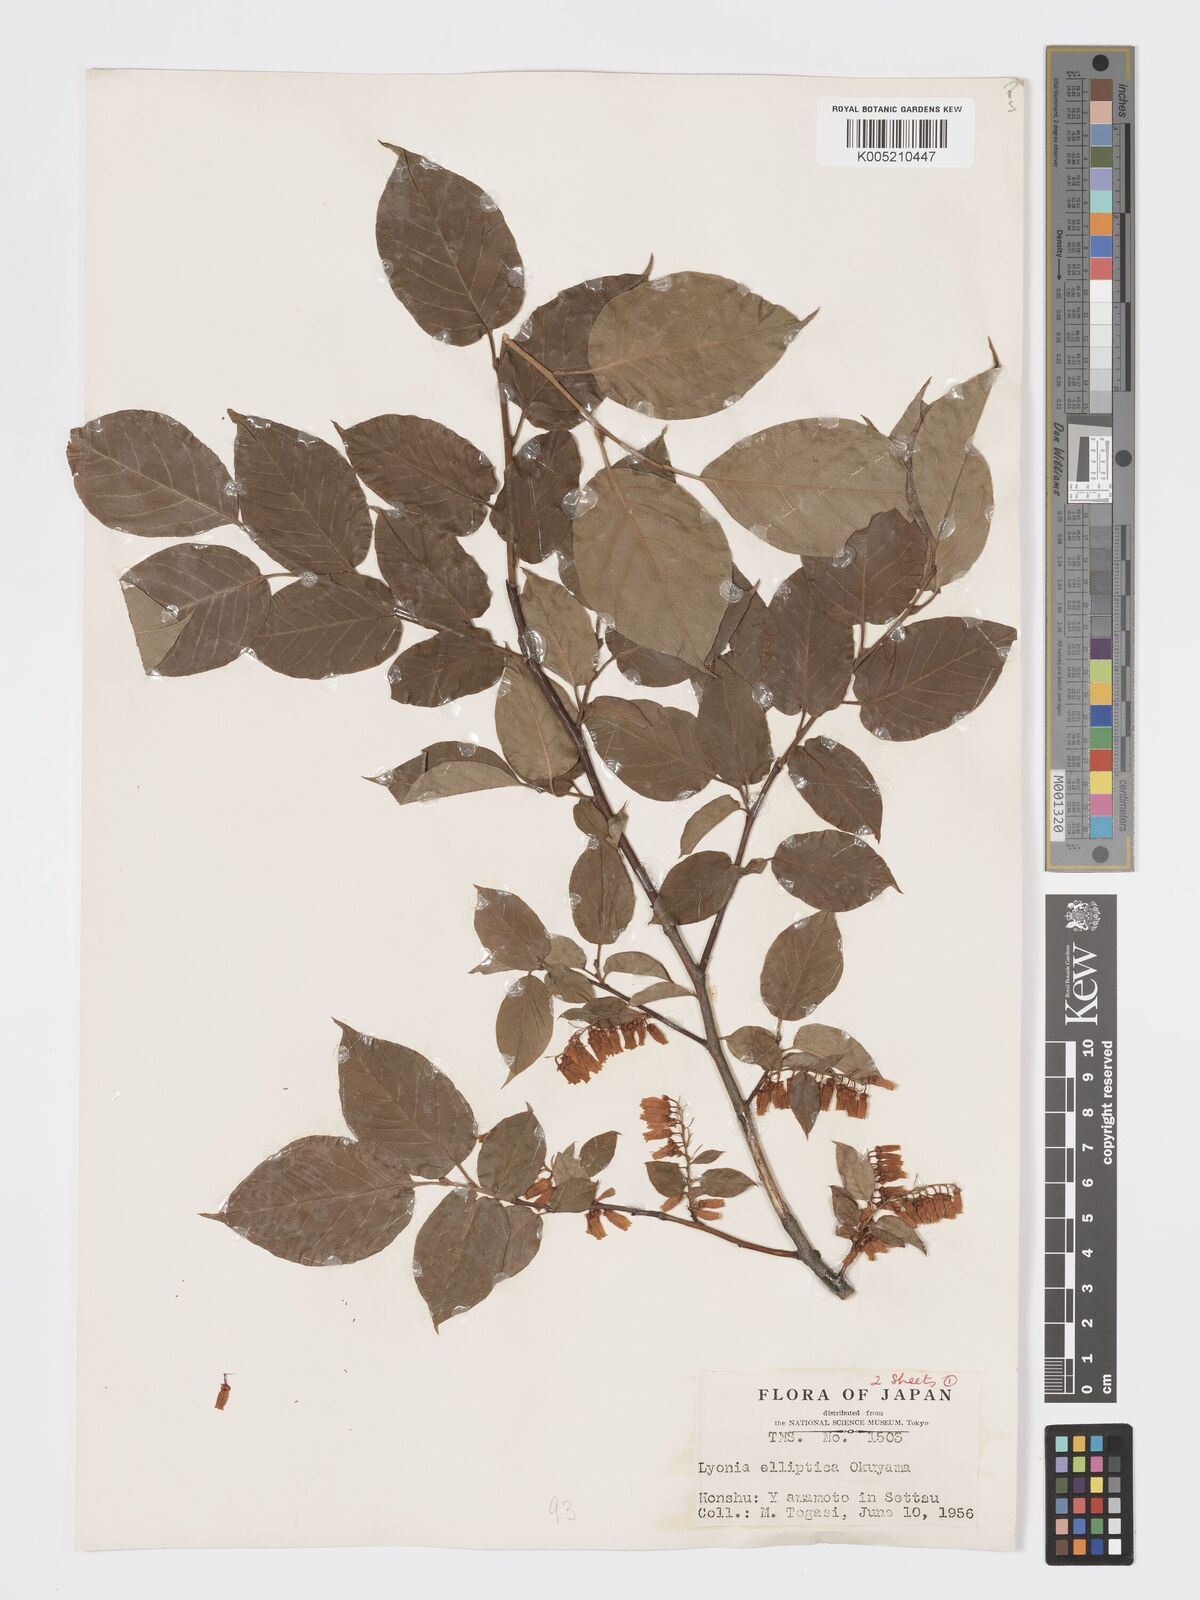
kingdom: Plantae
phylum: Tracheophyta
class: Magnoliopsida
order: Ericales
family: Ericaceae
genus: Lyonia
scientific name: Lyonia elliptica
